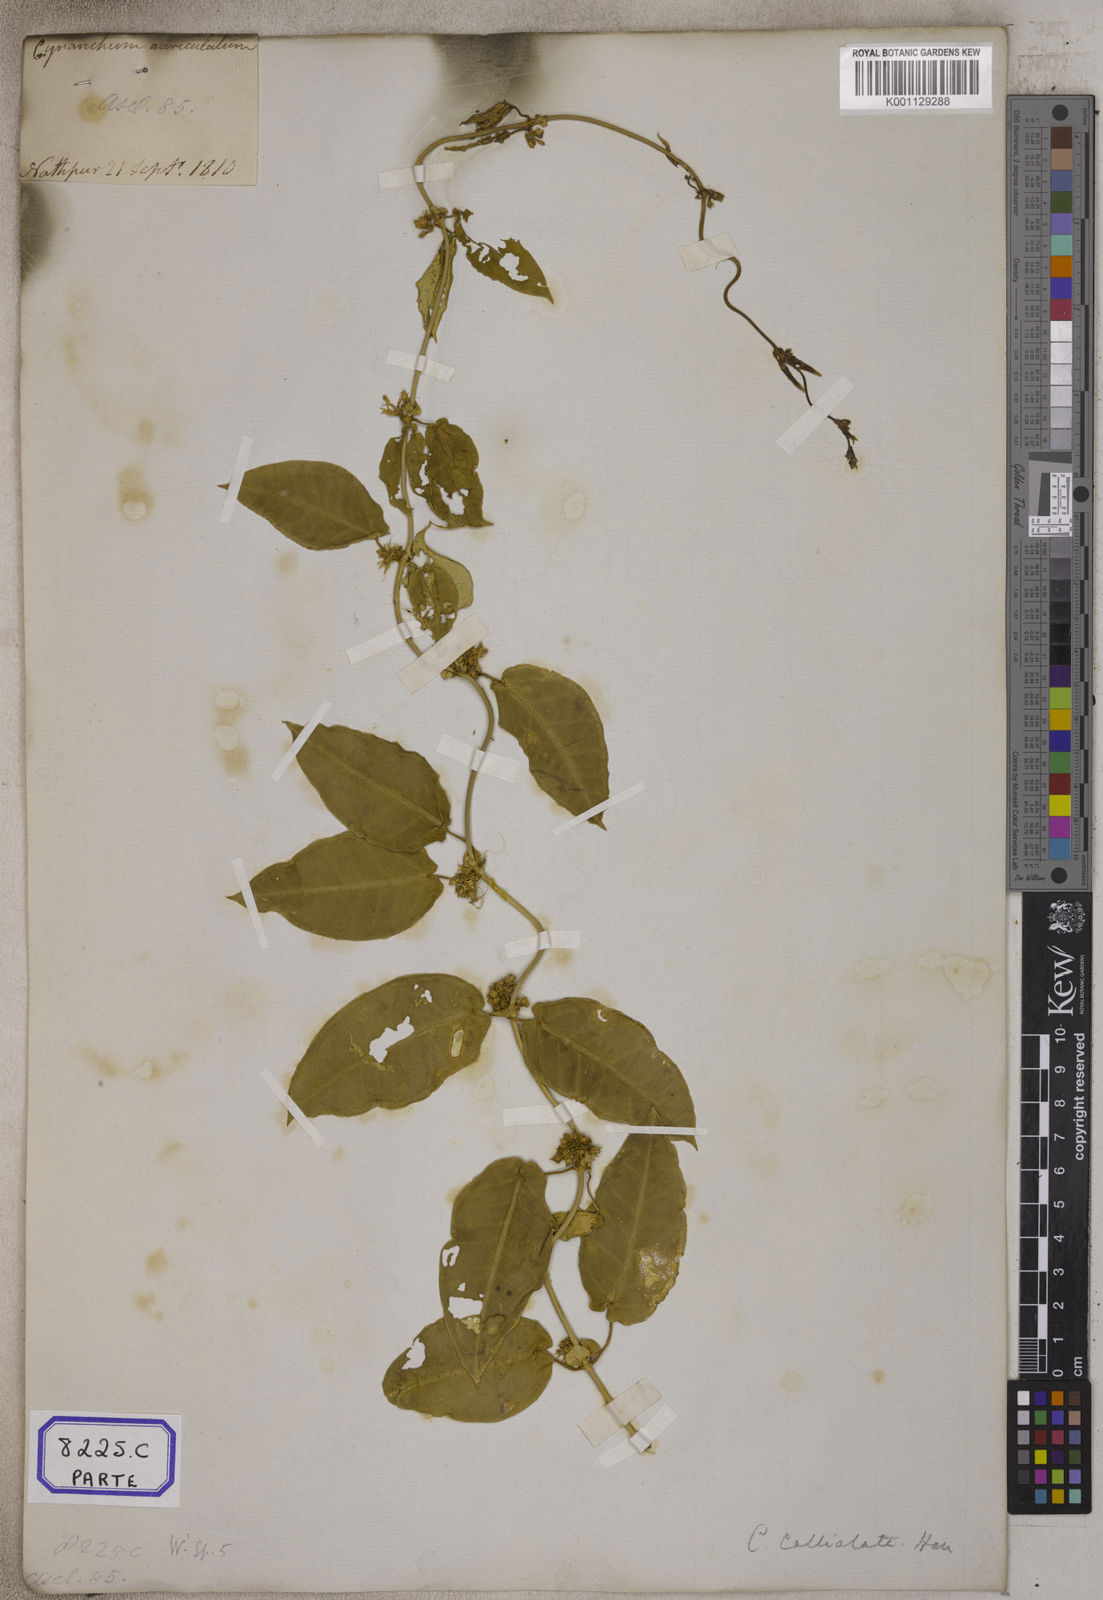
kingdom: Plantae
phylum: Tracheophyta
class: Magnoliopsida
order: Gentianales
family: Apocynaceae
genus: Cynanchum
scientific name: Cynanchum tunicatum
